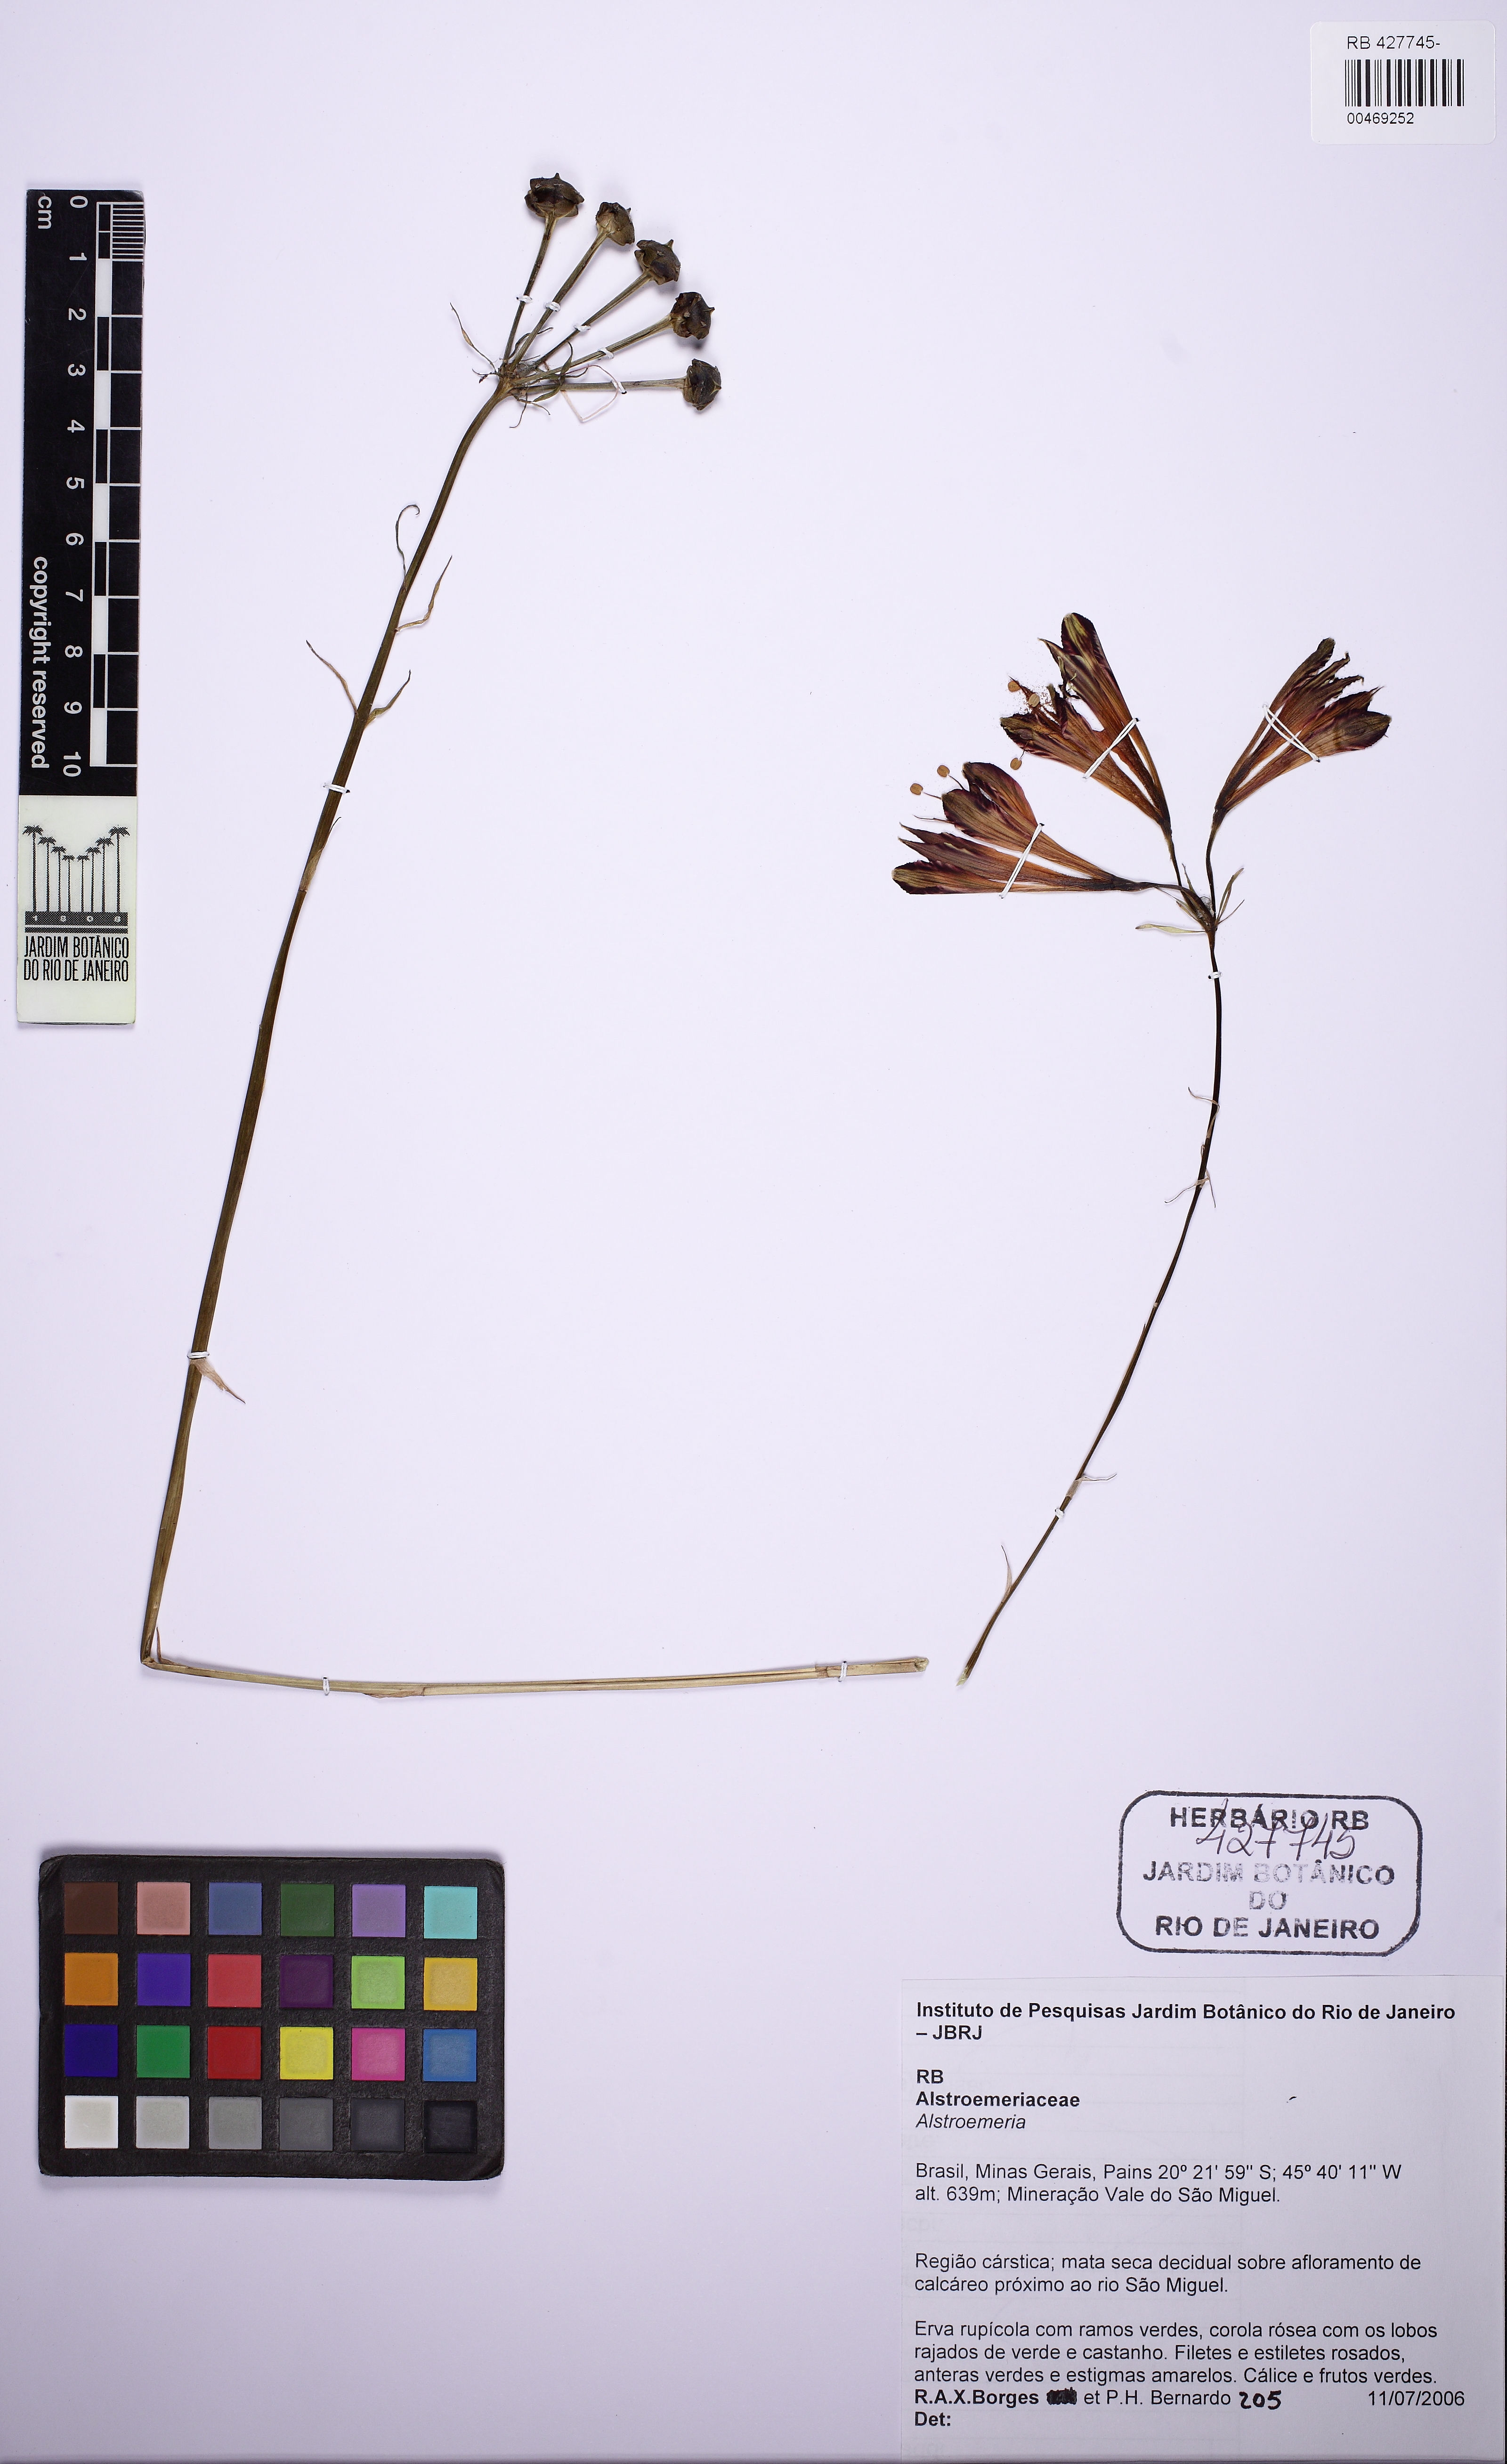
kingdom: Plantae
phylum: Tracheophyta
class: Liliopsida
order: Liliales
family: Smilacaceae
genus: Smilax
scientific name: Smilax
